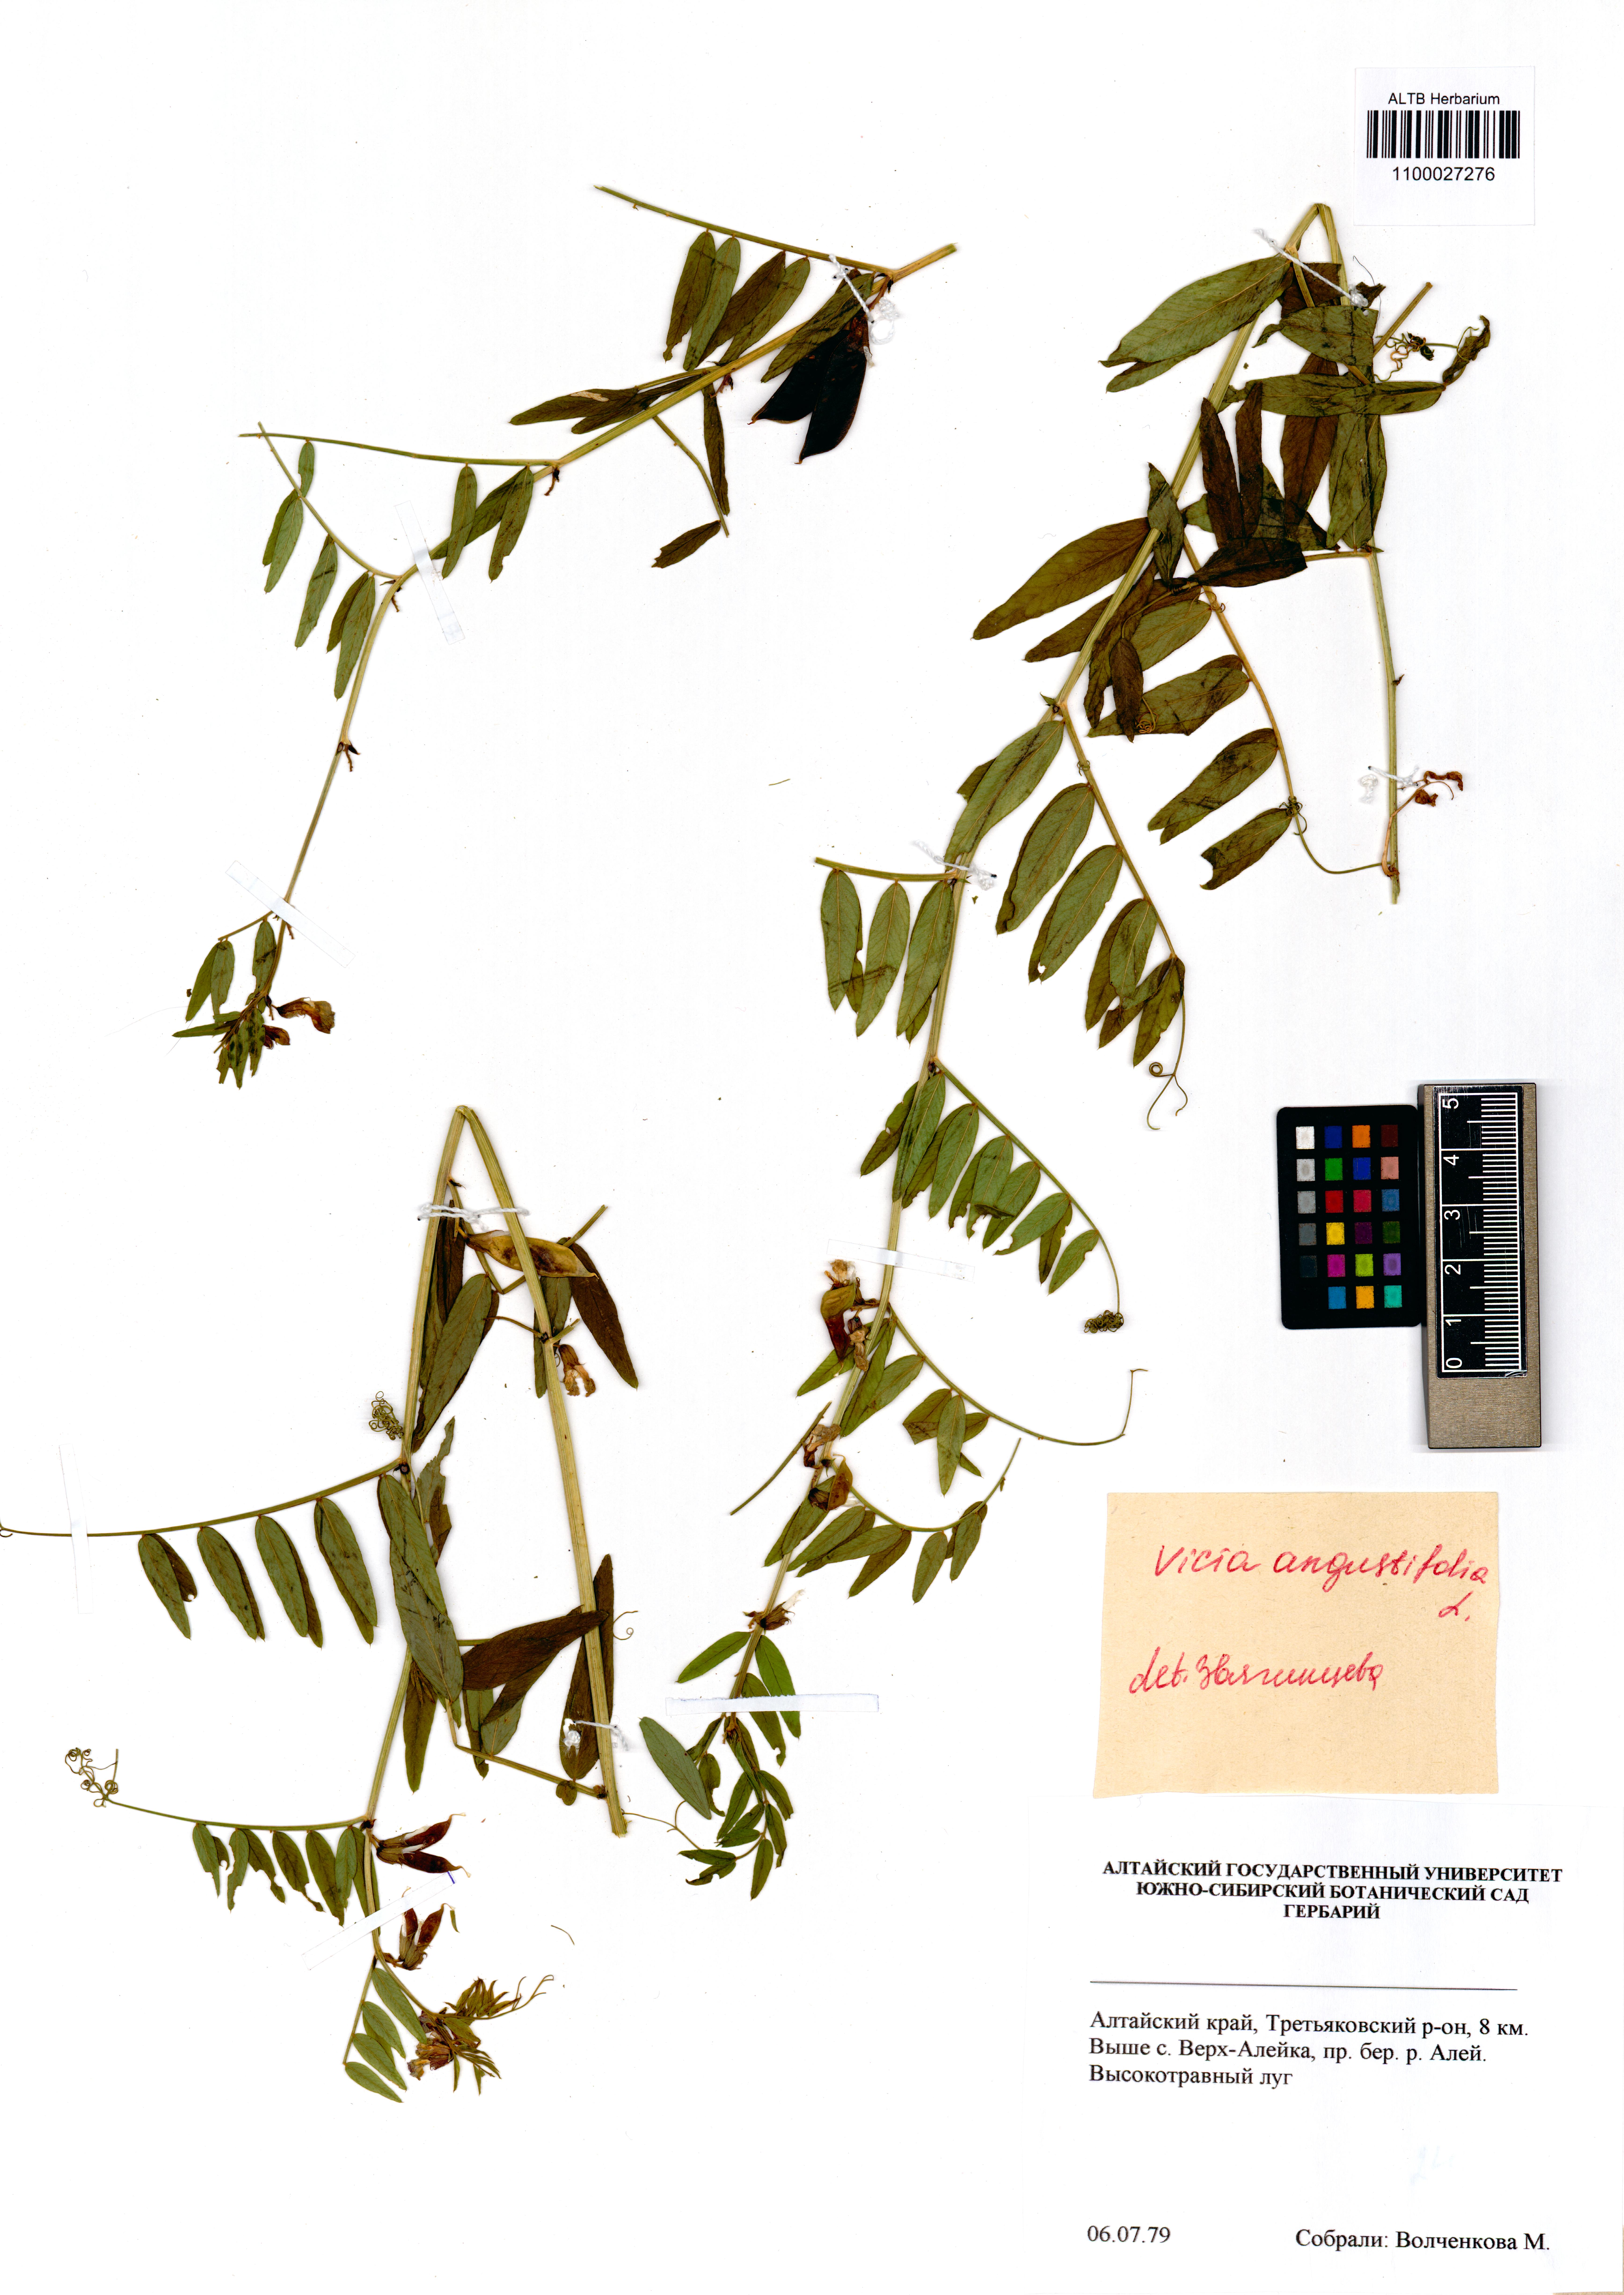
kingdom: Plantae
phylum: Tracheophyta
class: Magnoliopsida
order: Fabales
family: Fabaceae
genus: Vicia
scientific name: Vicia sativa
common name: Garden vetch
